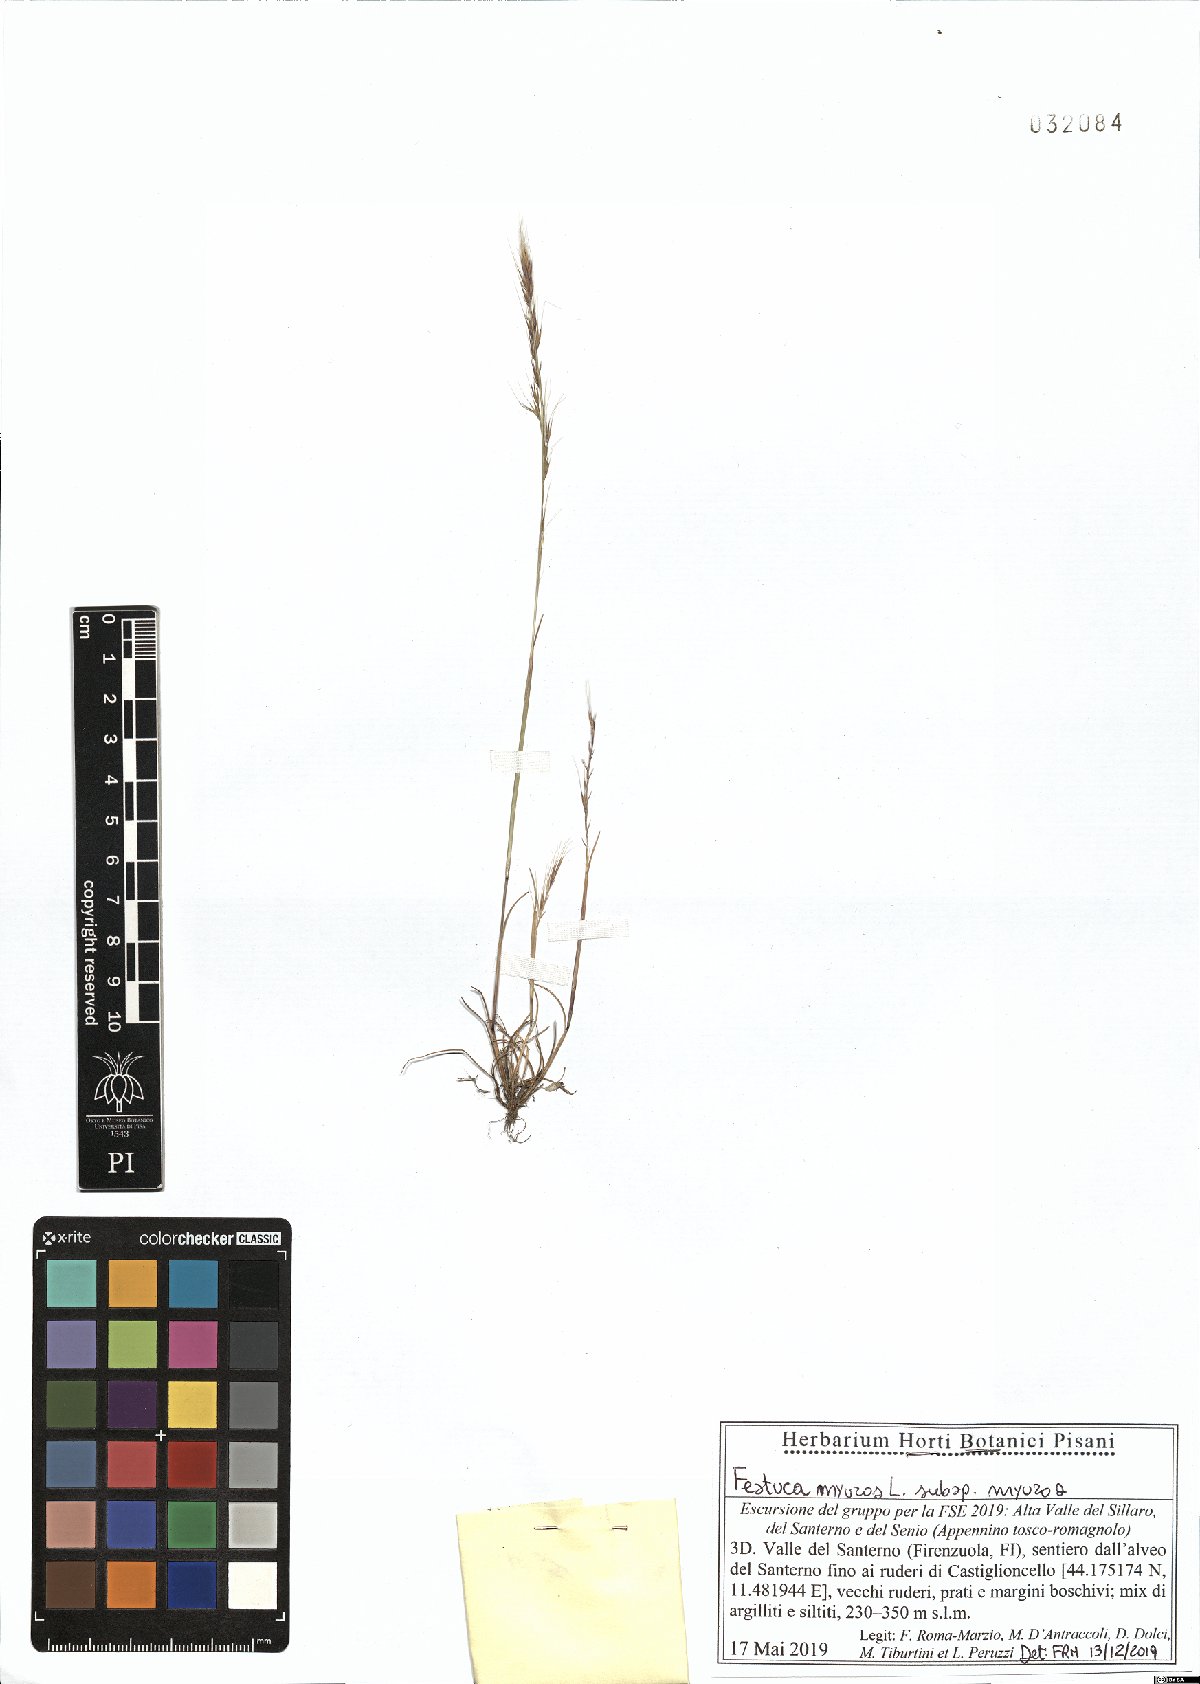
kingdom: Plantae
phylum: Tracheophyta
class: Liliopsida
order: Poales
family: Poaceae
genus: Festuca
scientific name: Festuca myuros
